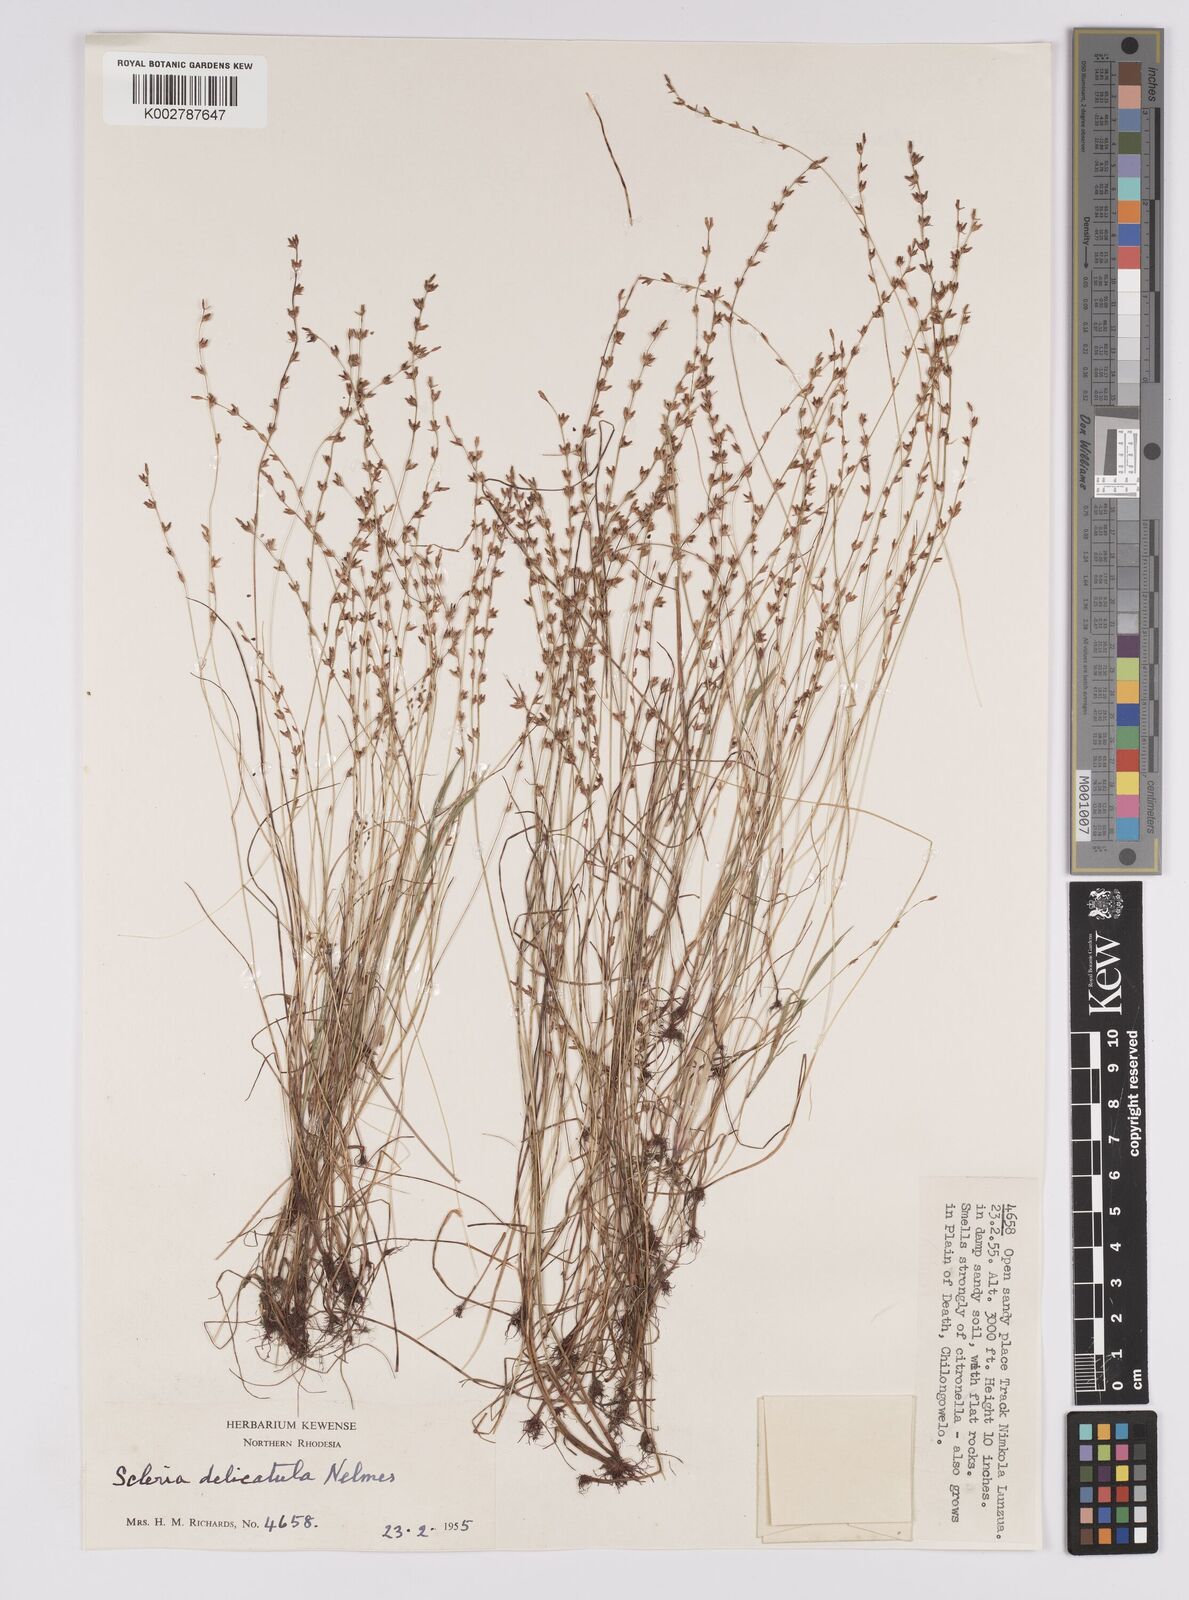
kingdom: Plantae
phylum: Tracheophyta
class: Liliopsida
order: Poales
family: Cyperaceae
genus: Scleria
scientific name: Scleria delicatula
